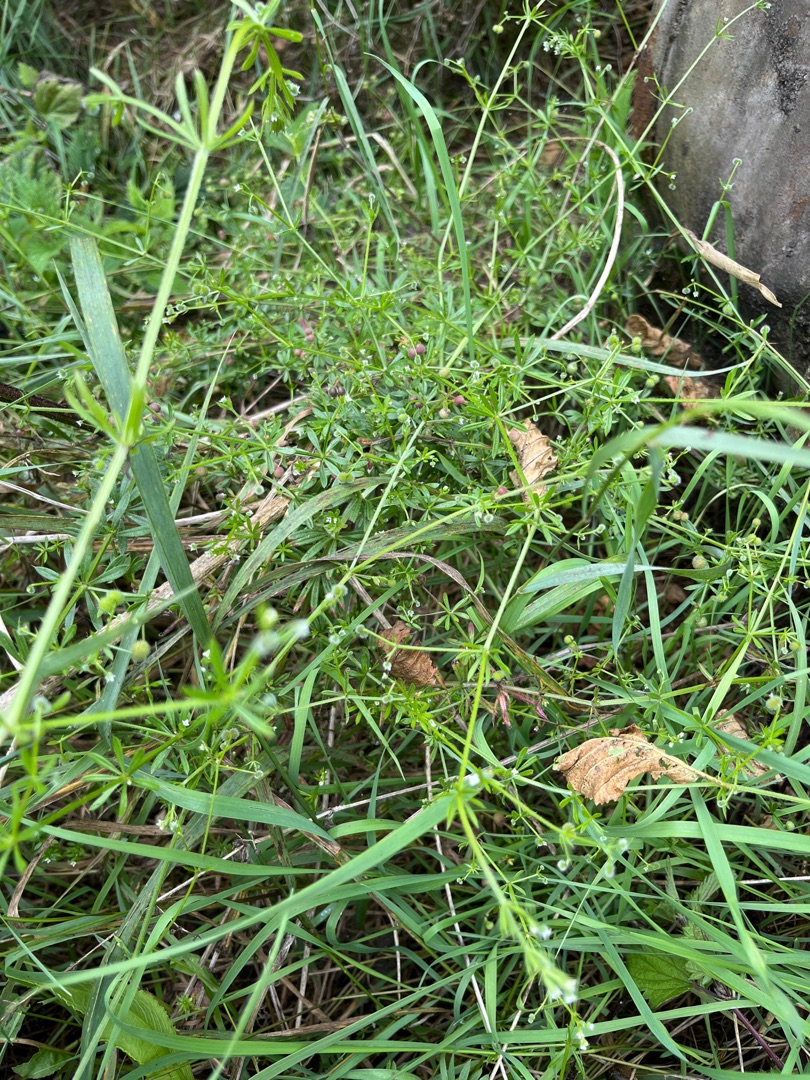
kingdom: Plantae
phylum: Tracheophyta
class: Magnoliopsida
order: Gentianales
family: Rubiaceae
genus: Galium
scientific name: Galium aparine
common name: Burre-snerre
